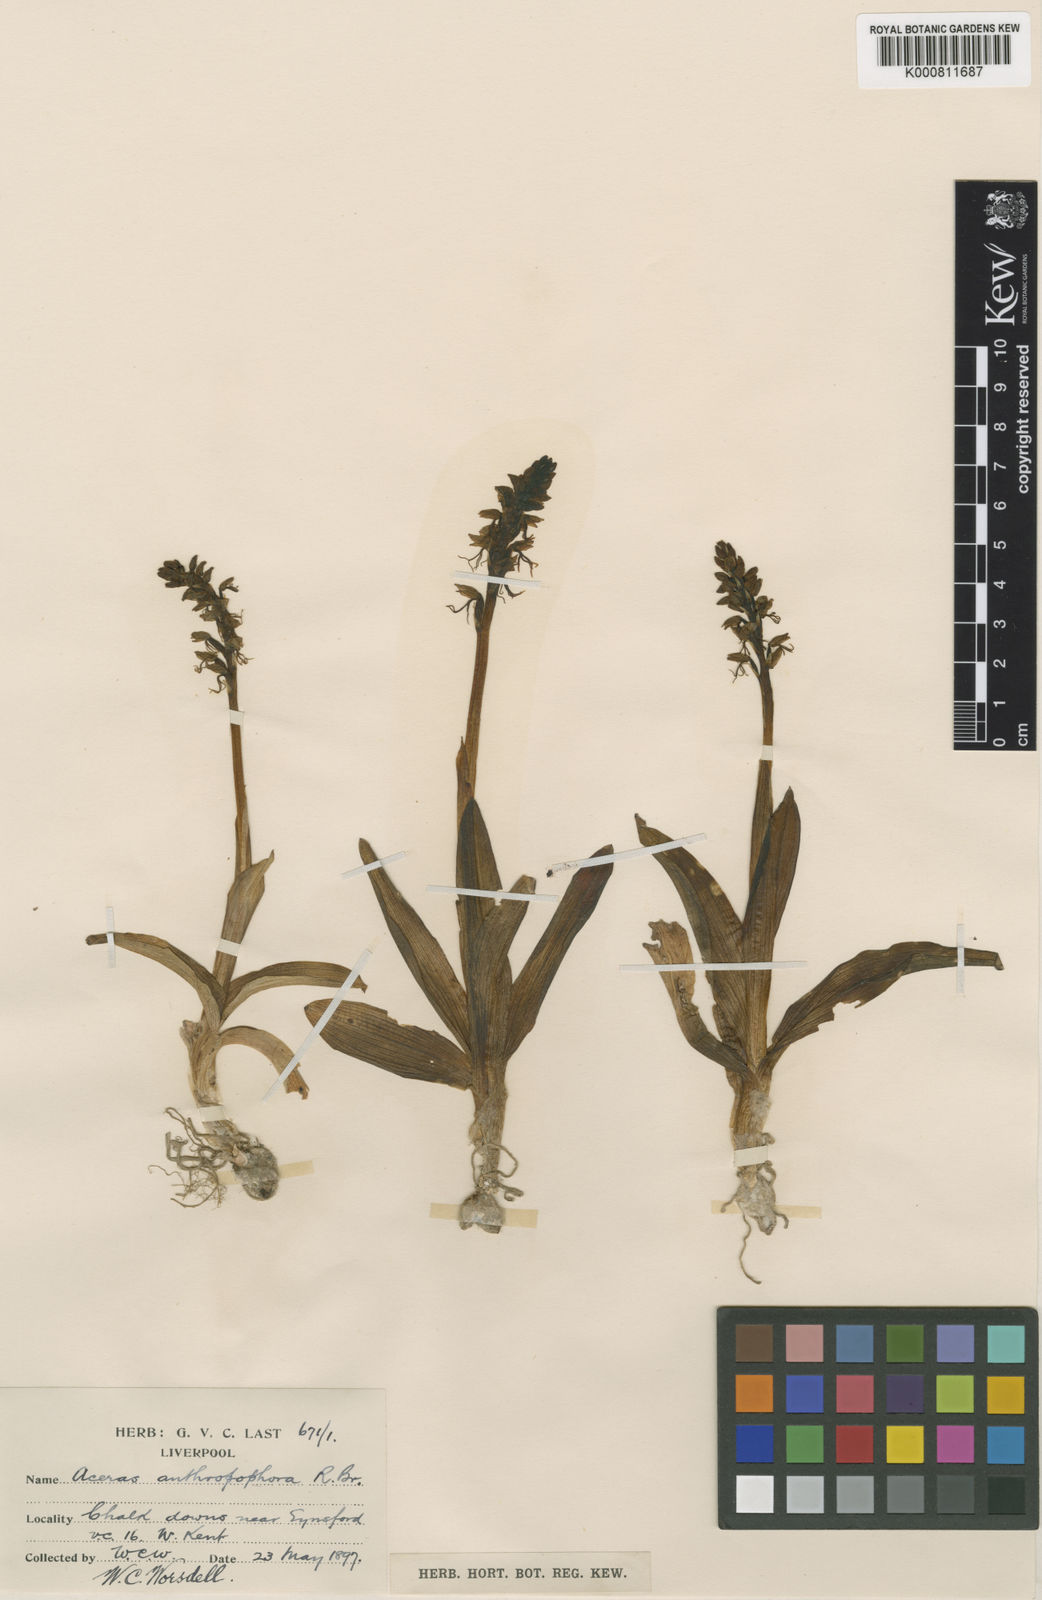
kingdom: Plantae
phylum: Tracheophyta
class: Liliopsida
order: Asparagales
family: Orchidaceae
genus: Orchis
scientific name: Orchis
